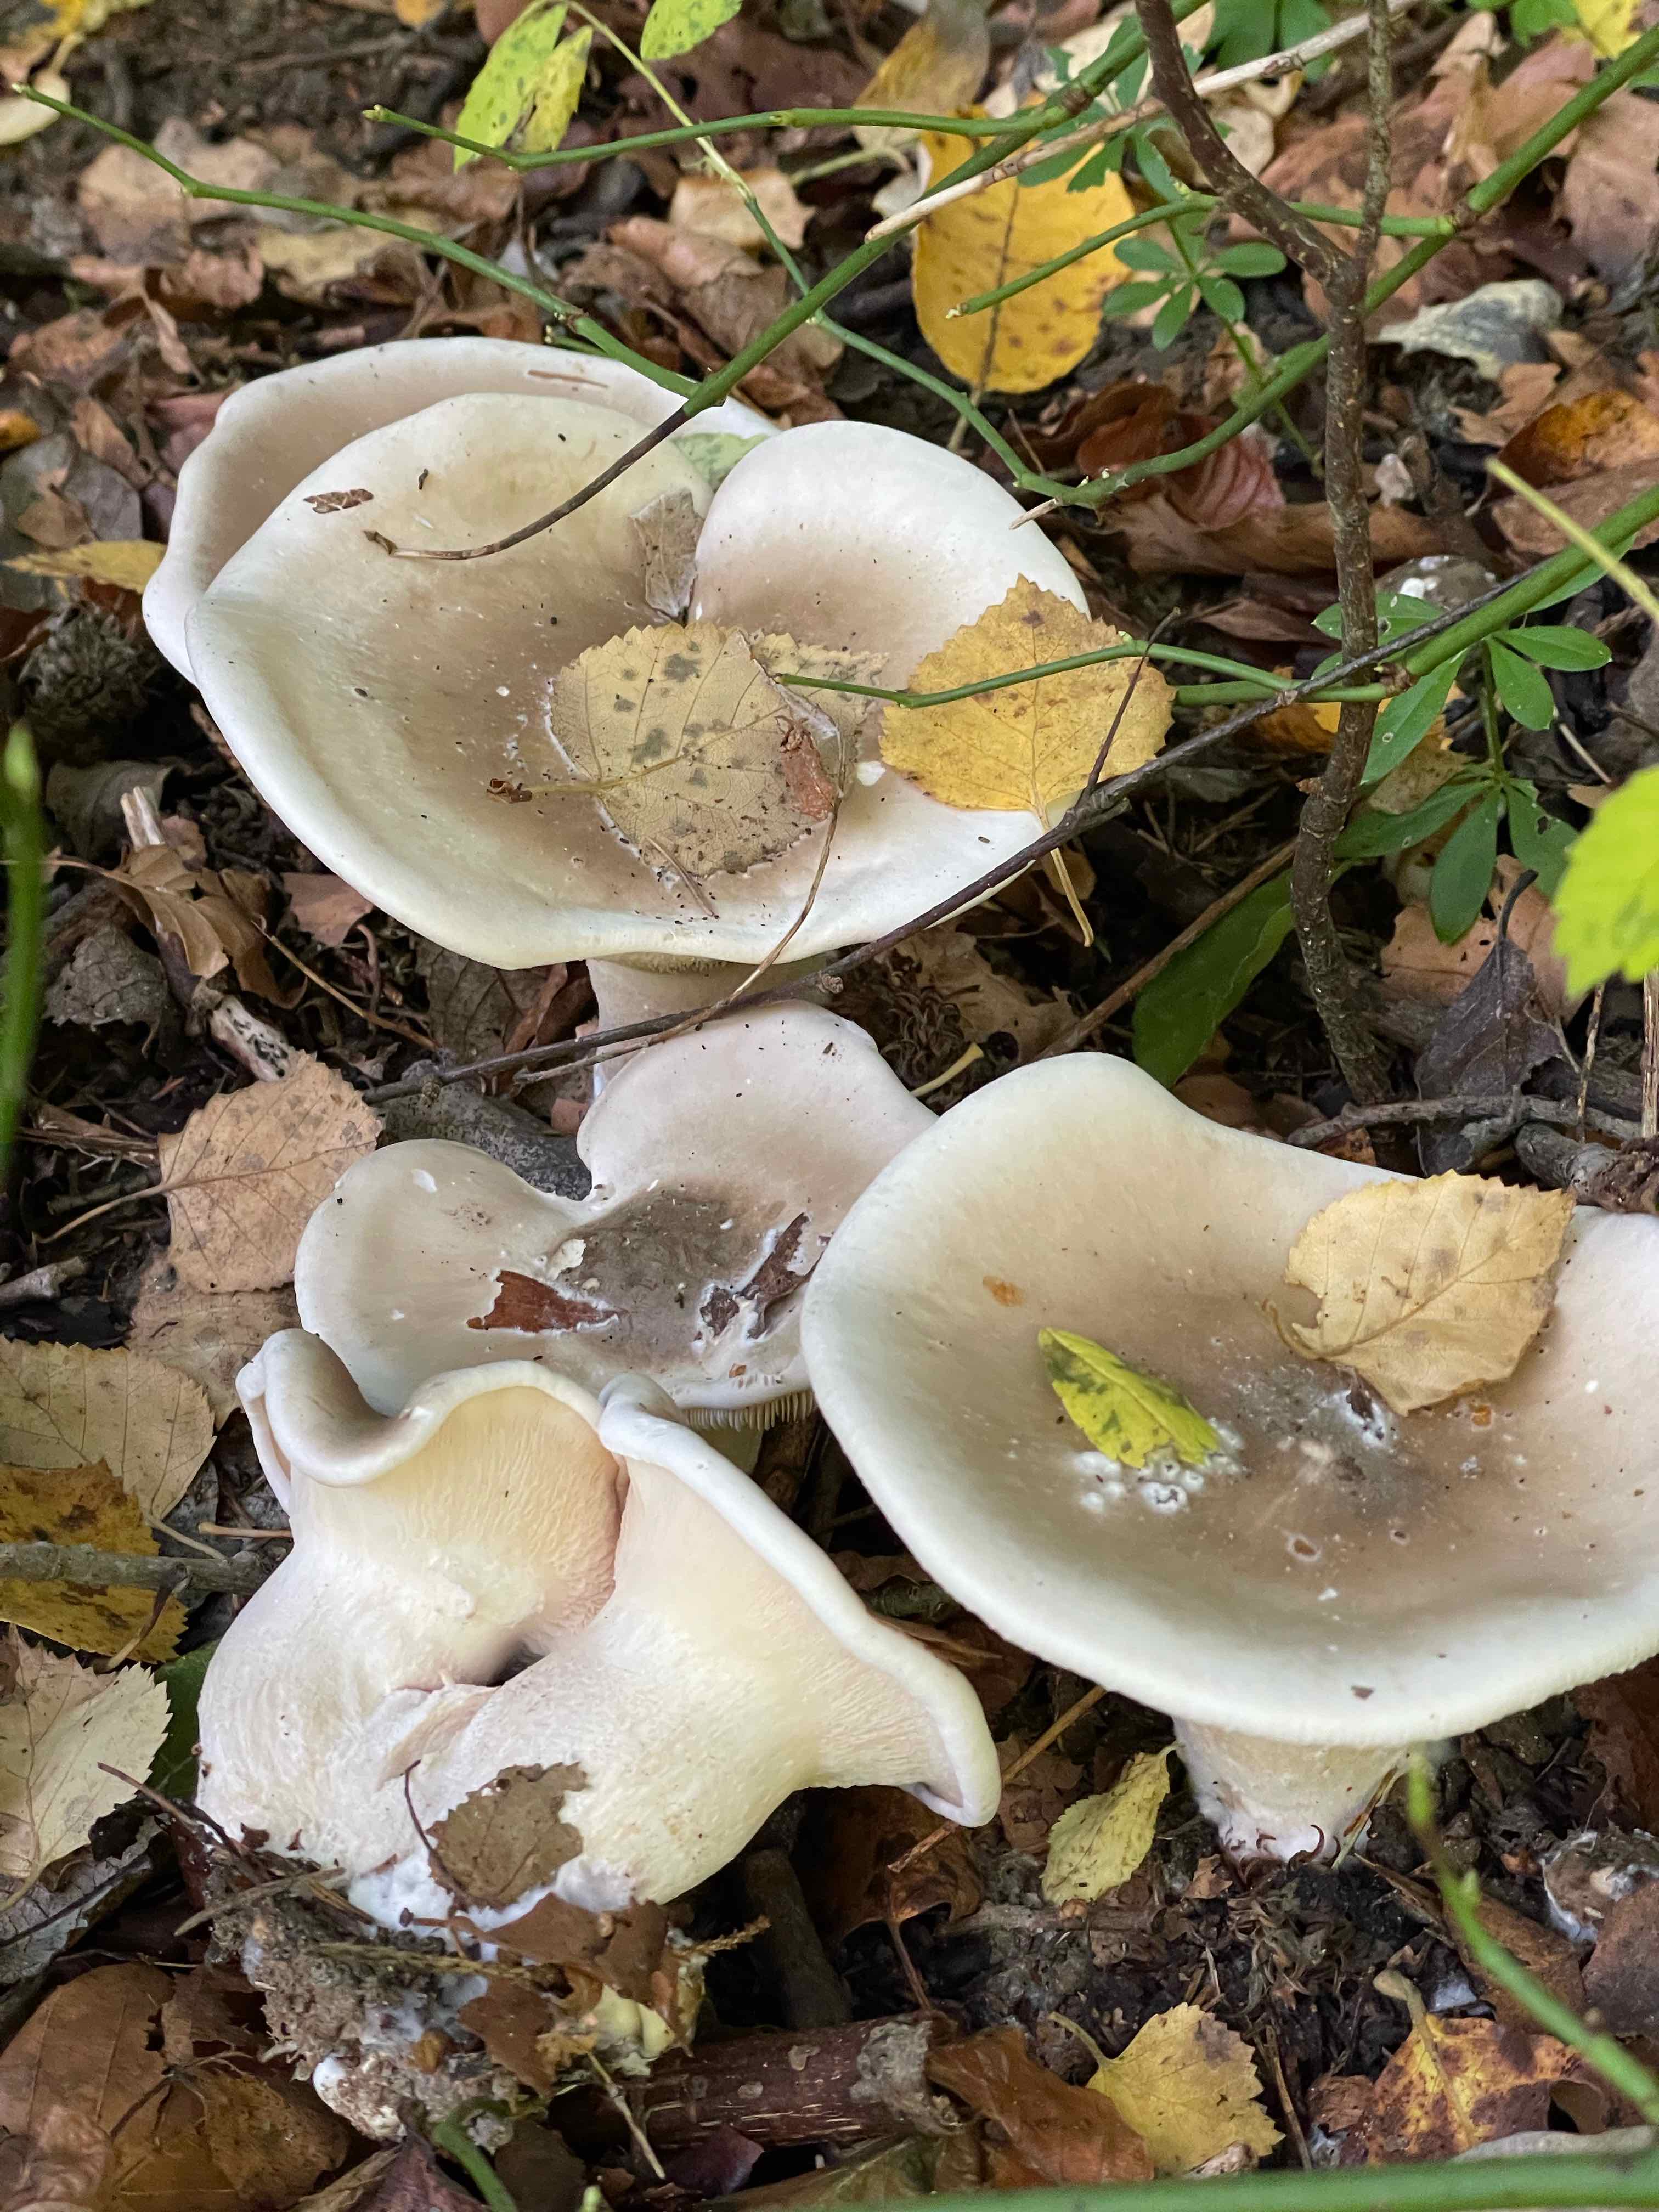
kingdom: Fungi
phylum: Basidiomycota
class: Agaricomycetes
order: Agaricales
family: Tricholomataceae
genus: Clitocybe
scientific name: Clitocybe nebularis
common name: tåge-tragthat
